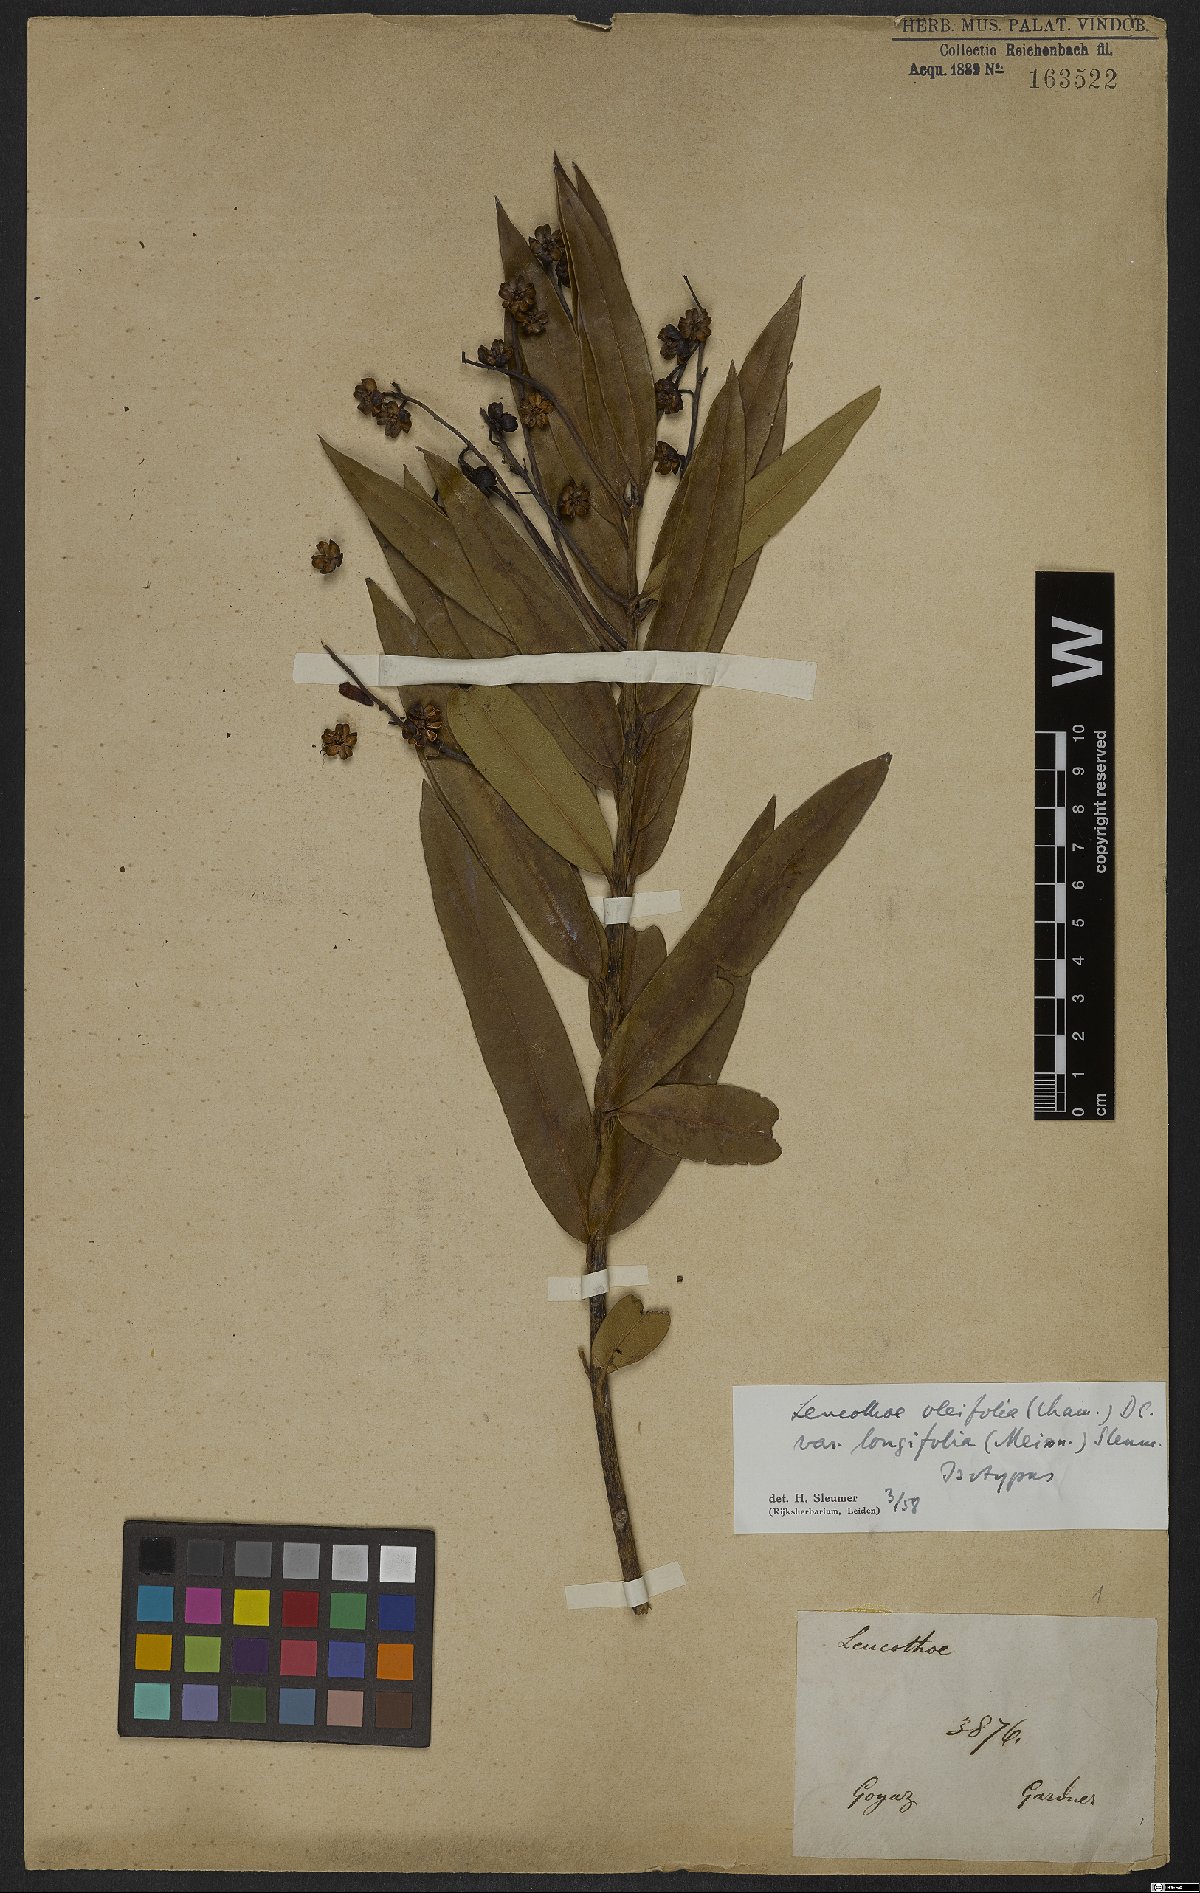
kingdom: Plantae
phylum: Tracheophyta
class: Magnoliopsida
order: Ericales
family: Ericaceae
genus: Agarista
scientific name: Agarista oleifolia
